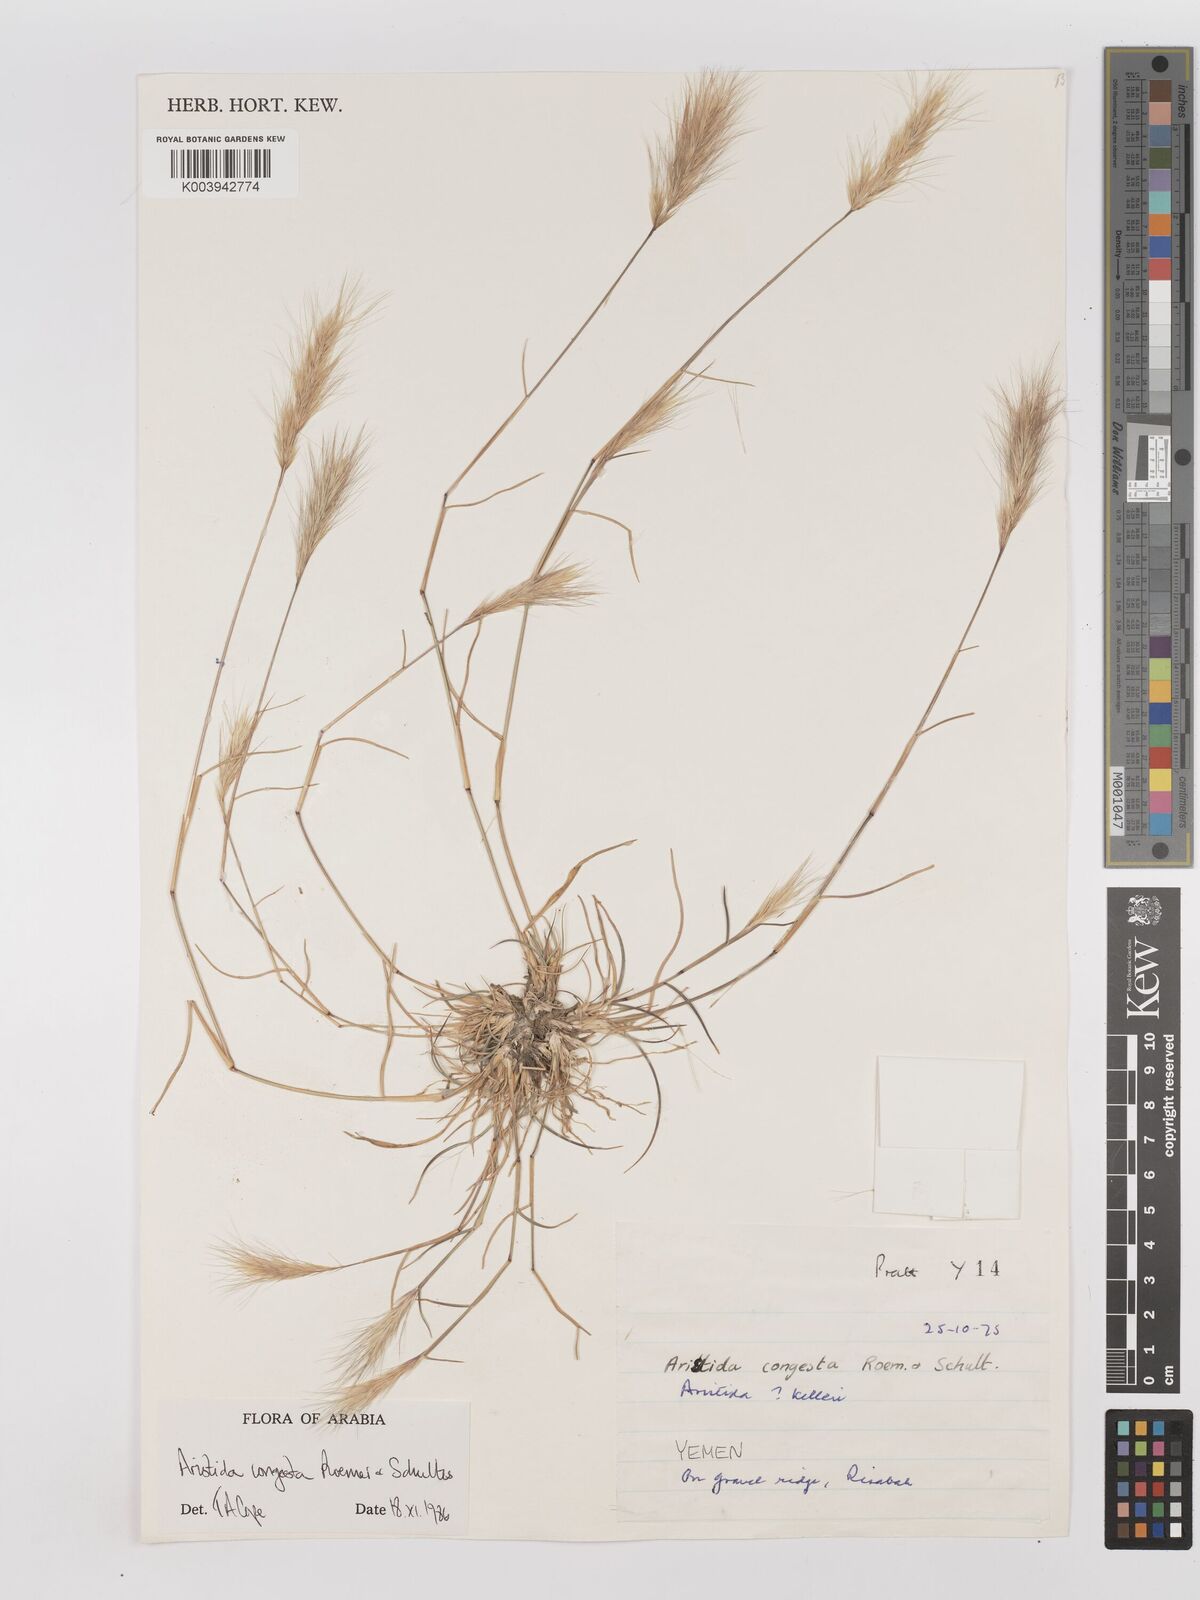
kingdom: Plantae
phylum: Tracheophyta
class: Liliopsida
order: Poales
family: Poaceae
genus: Aristida
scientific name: Aristida congesta
